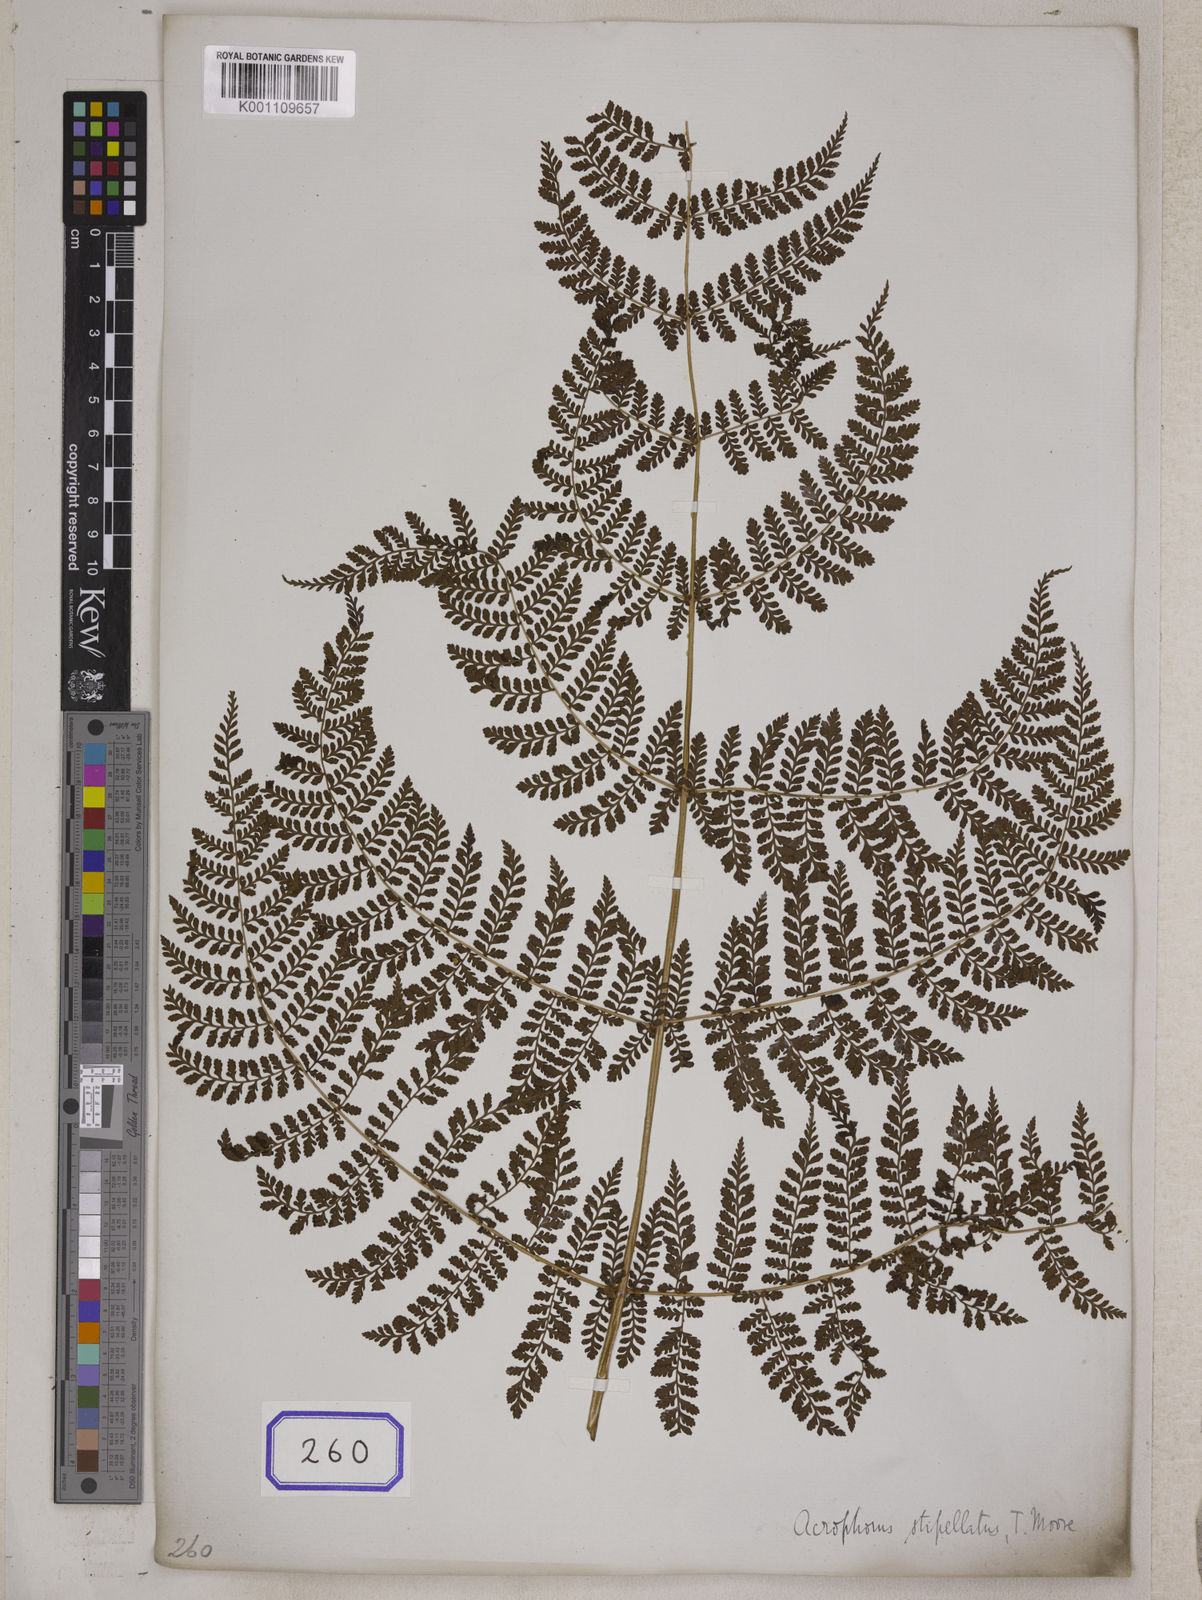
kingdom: Plantae
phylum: Tracheophyta
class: Polypodiopsida
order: Polypodiales
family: Davalliaceae
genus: Davallia
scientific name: Davallia
